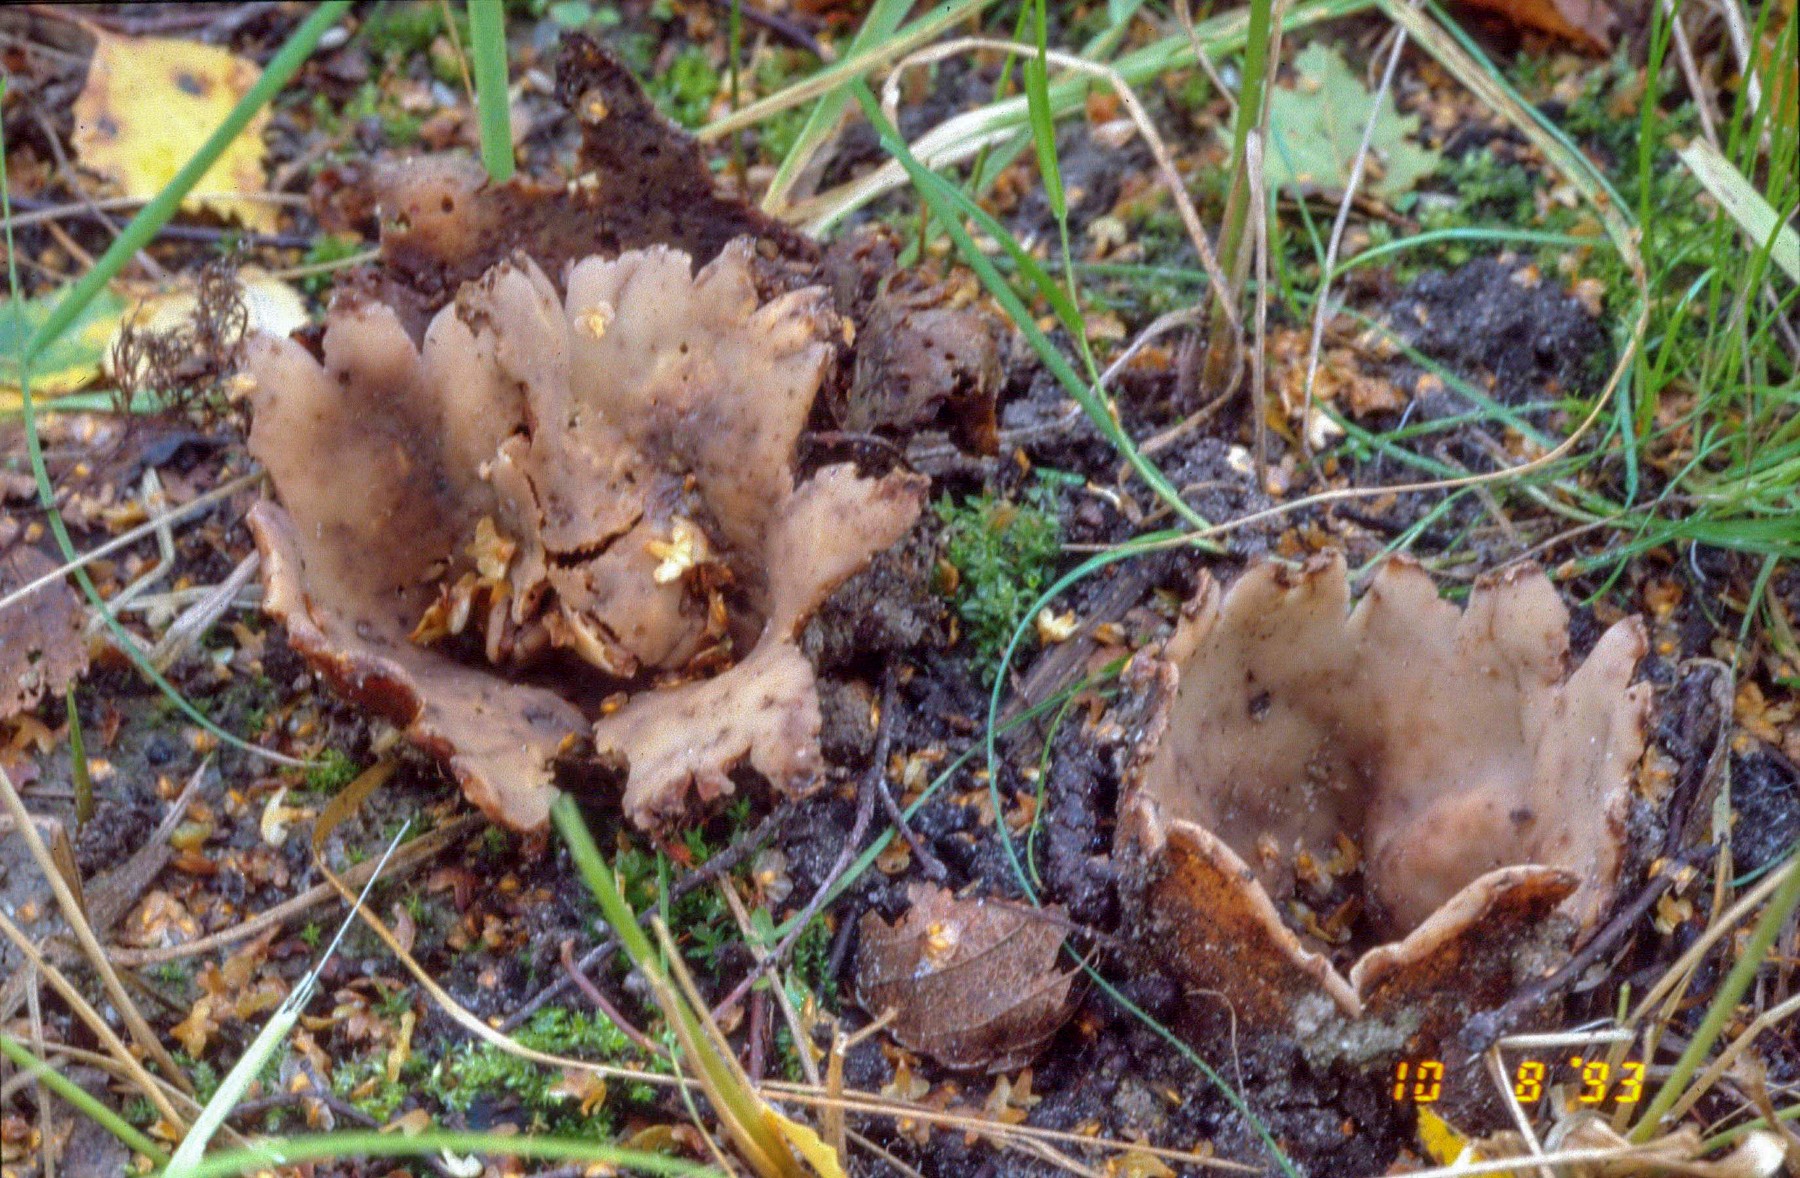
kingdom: Fungi
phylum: Ascomycota
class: Pezizomycetes
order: Pezizales
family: Pyronemataceae
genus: Geopora
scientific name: Geopora cervina
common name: hjortebrun jordbæger
